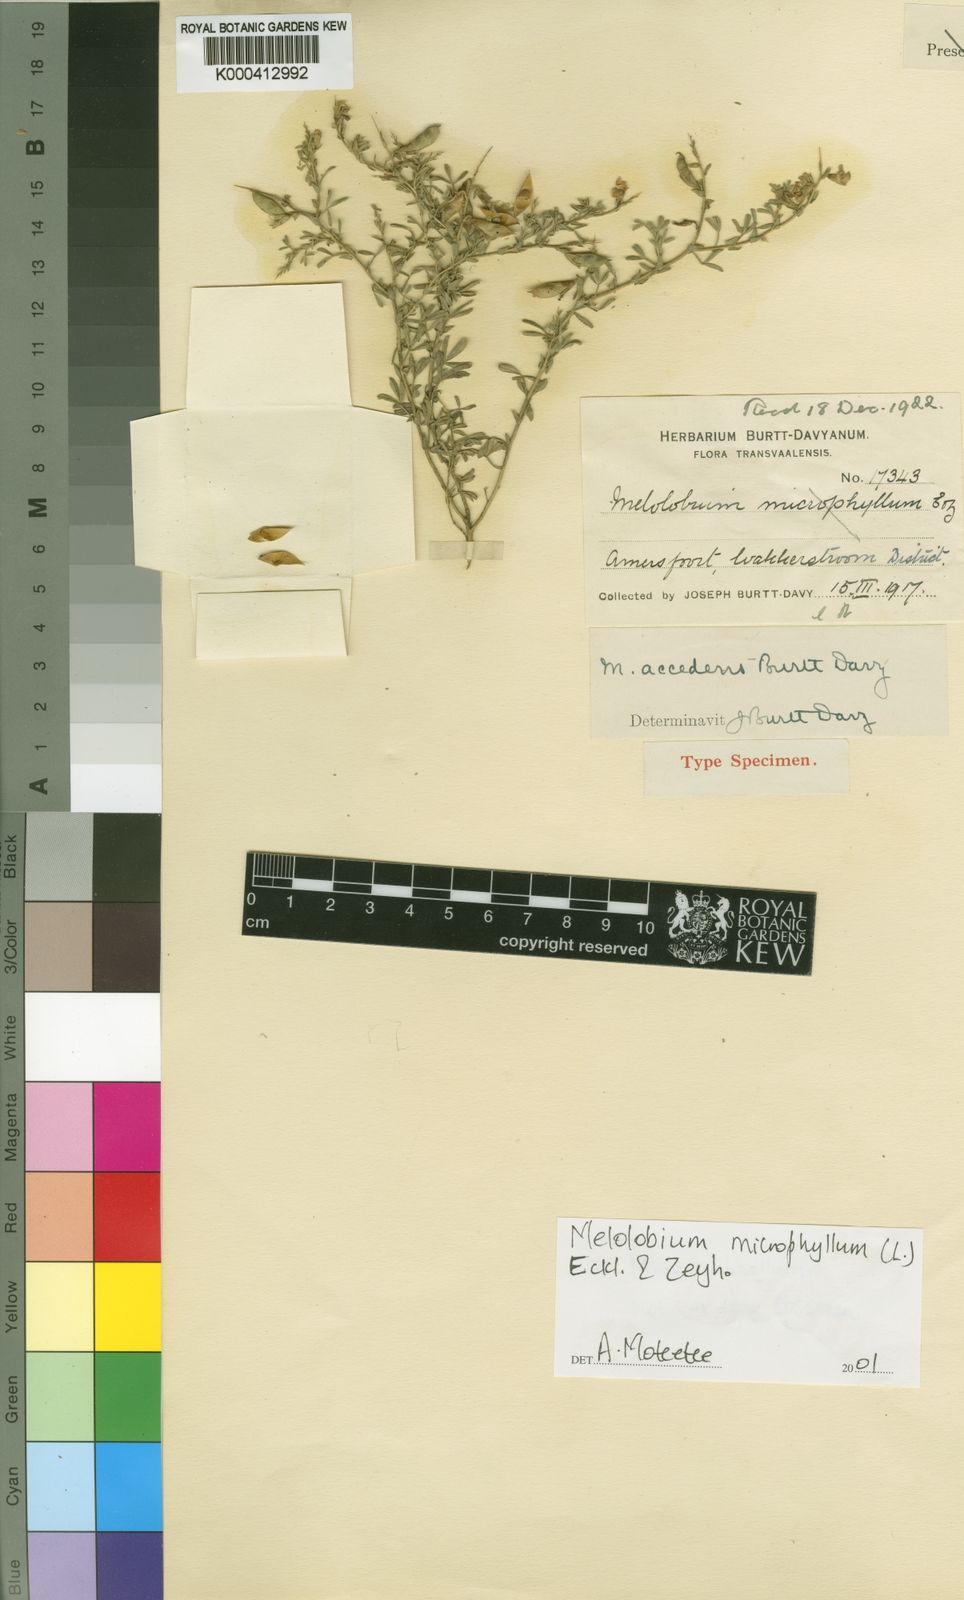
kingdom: Plantae
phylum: Tracheophyta
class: Magnoliopsida
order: Fabales
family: Fabaceae
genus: Melolobium
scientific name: Melolobium microphyllum
